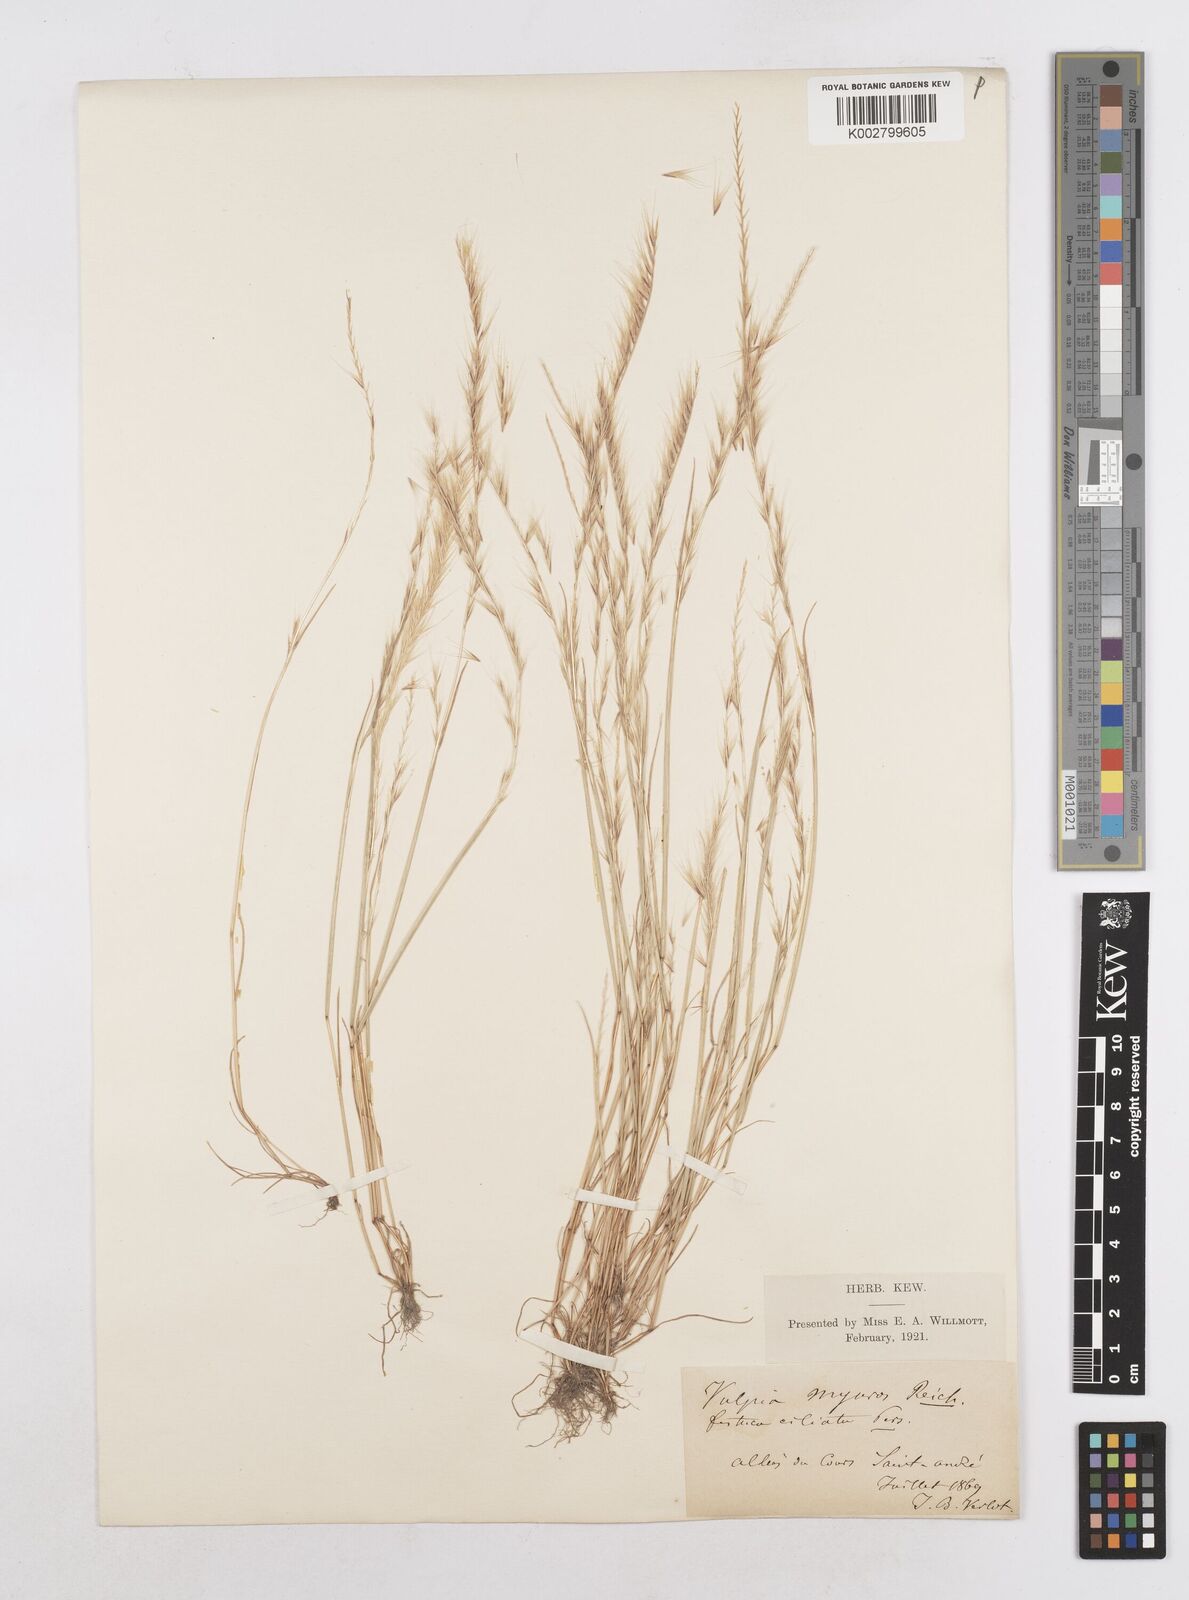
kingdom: Plantae
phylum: Tracheophyta
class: Liliopsida
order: Poales
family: Poaceae
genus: Festuca
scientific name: Festuca
